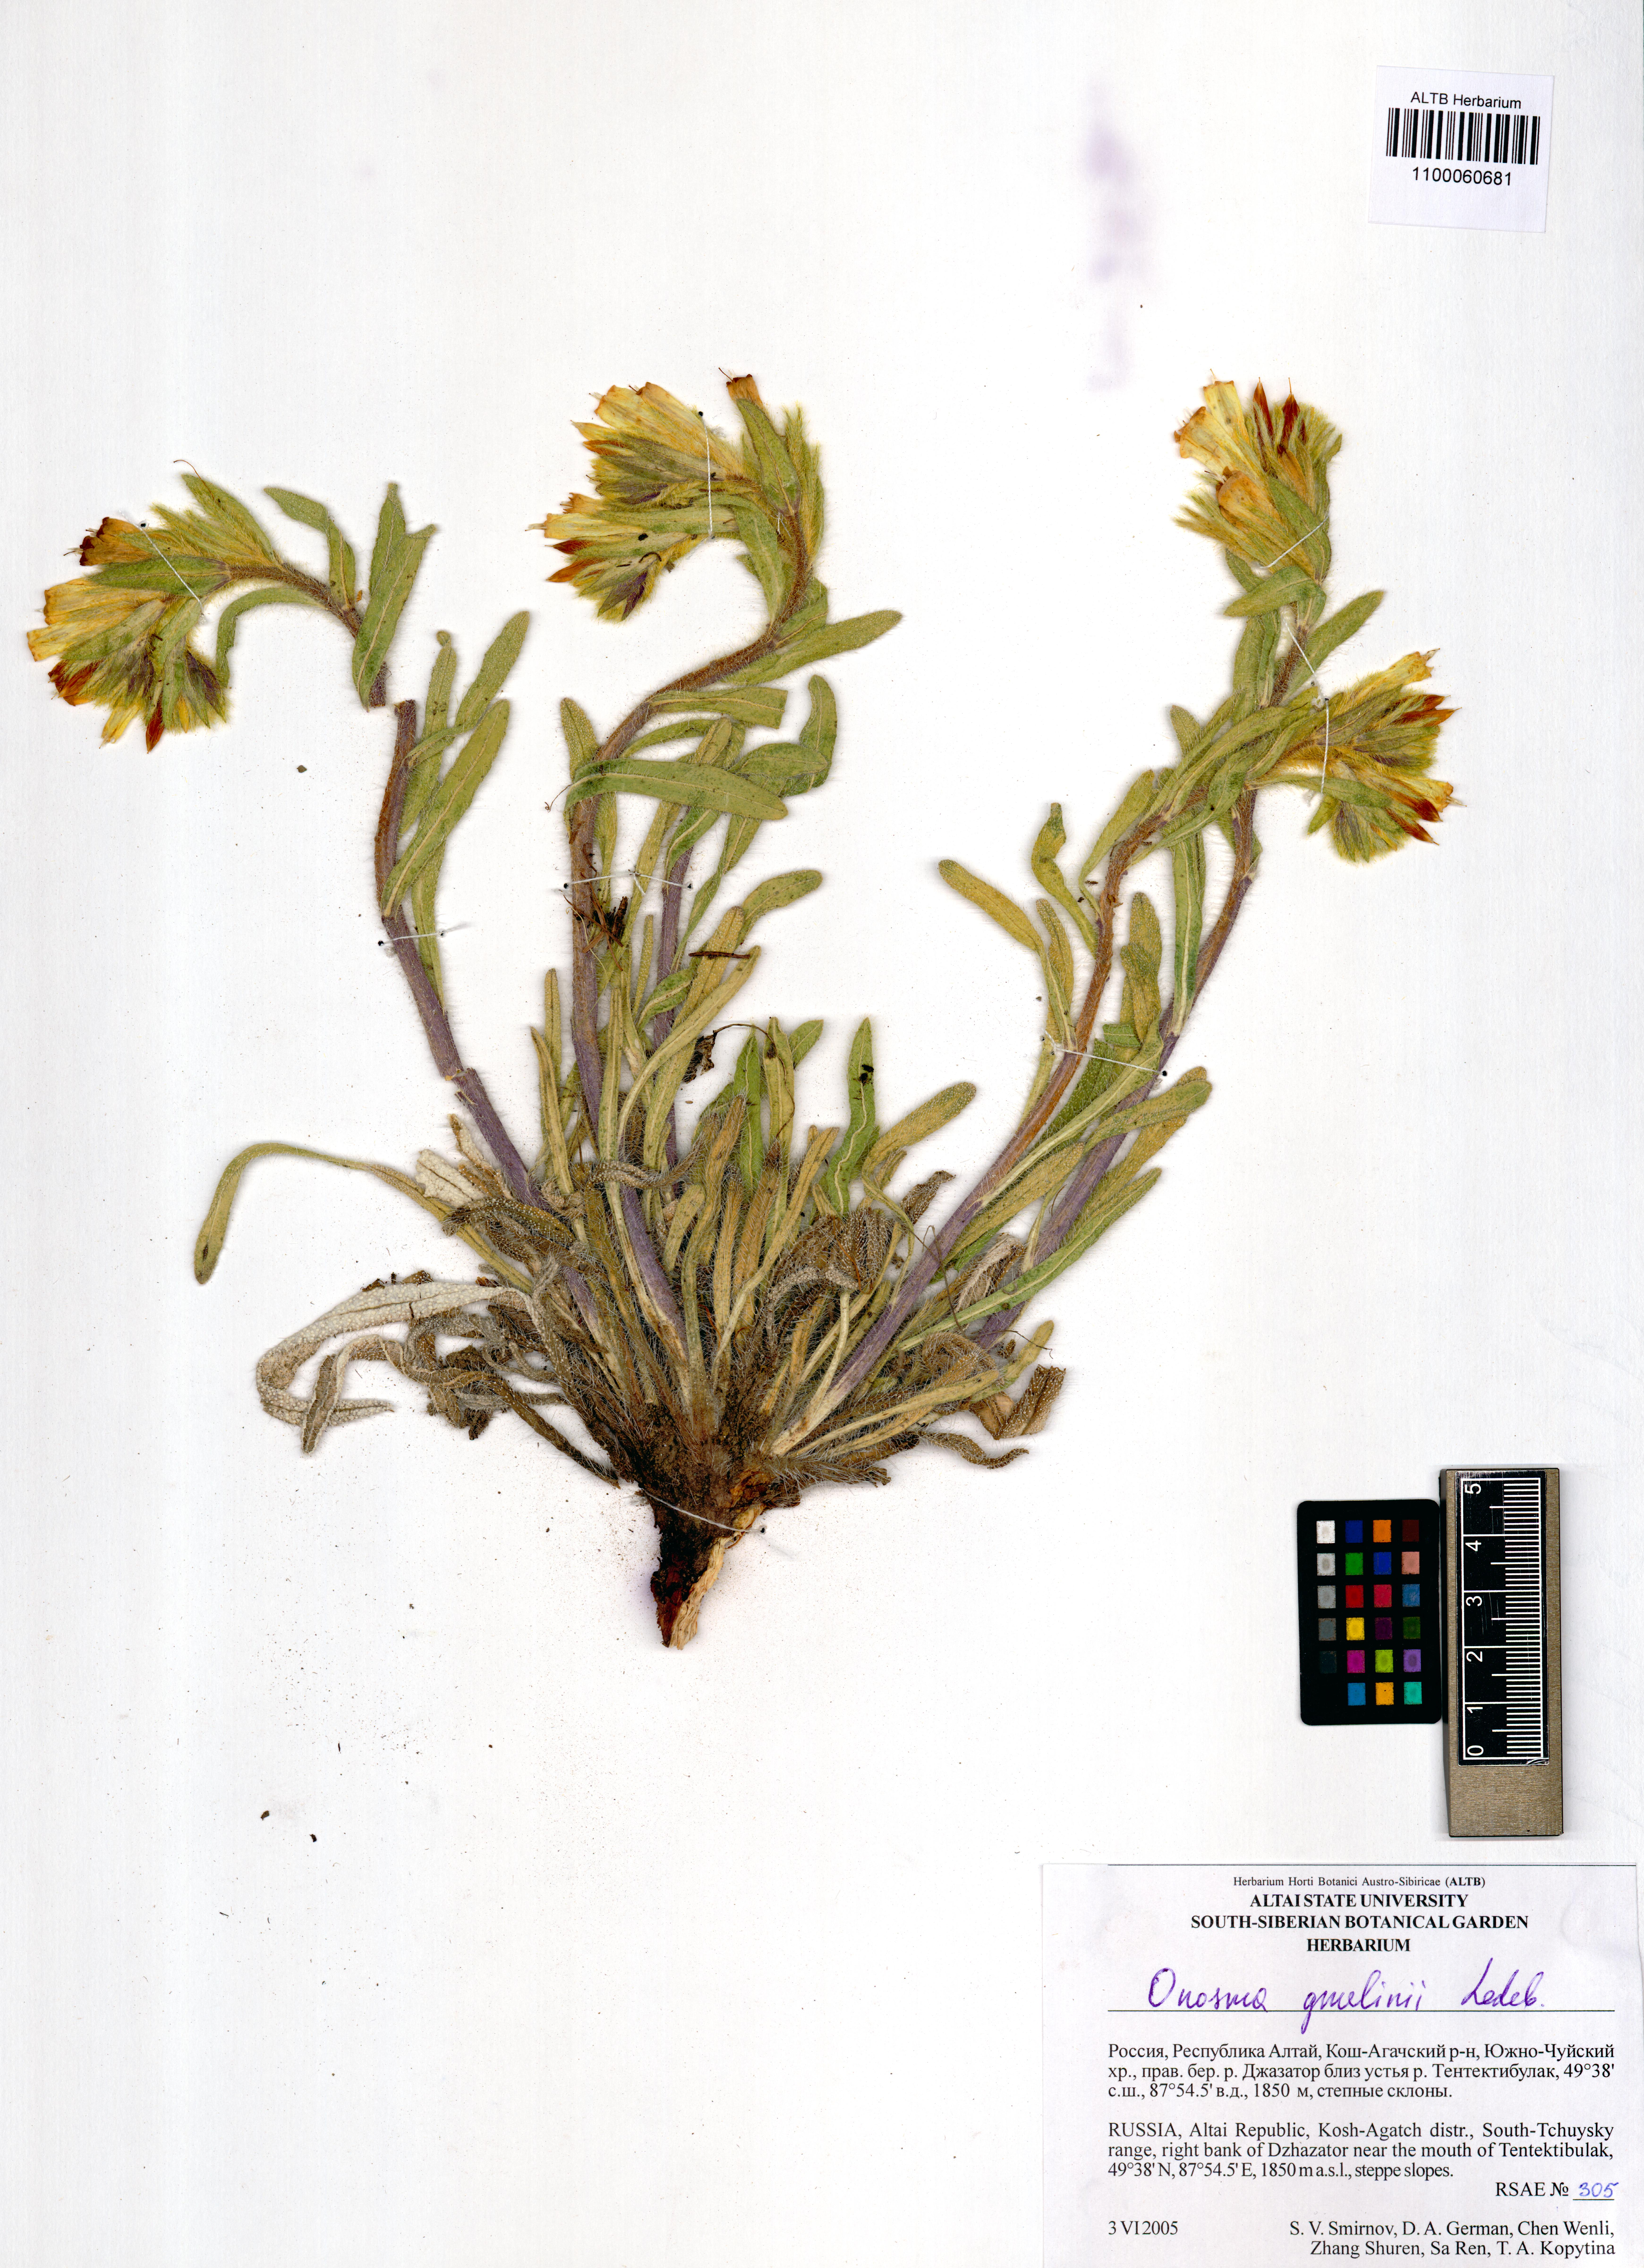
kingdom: Plantae
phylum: Tracheophyta
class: Magnoliopsida
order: Boraginales
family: Boraginaceae
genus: Onosma
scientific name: Onosma gmelinii
